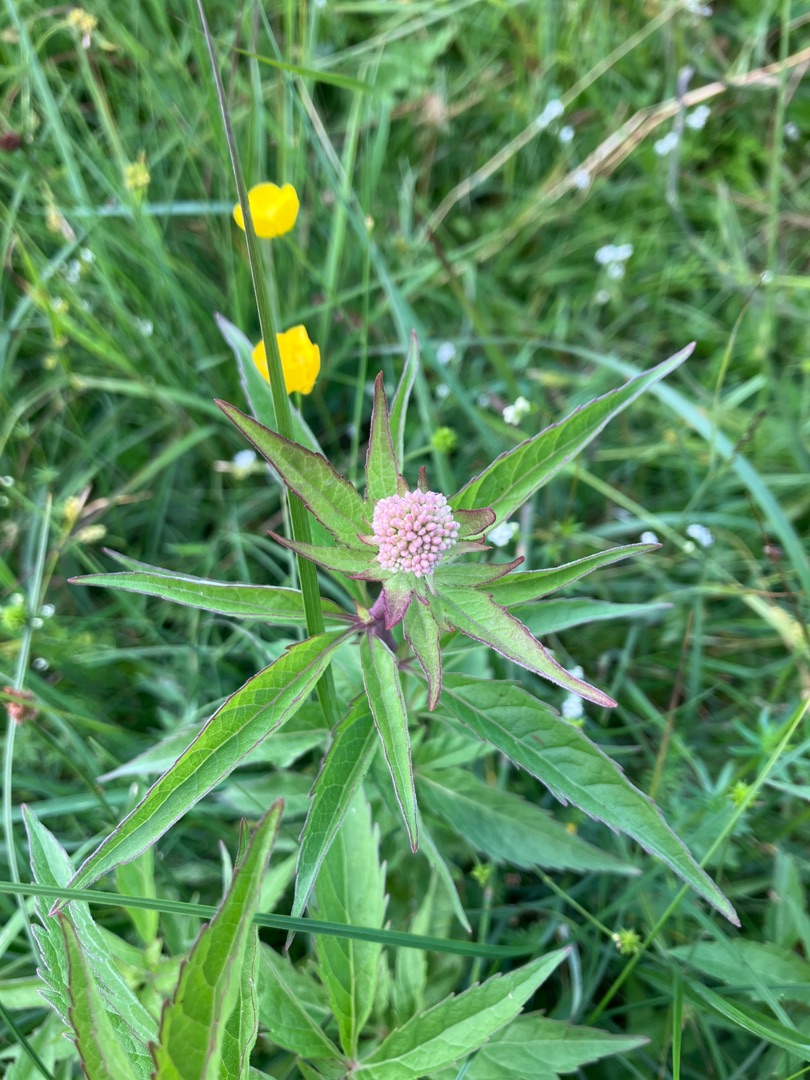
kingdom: Plantae
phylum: Tracheophyta
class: Magnoliopsida
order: Asterales
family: Asteraceae
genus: Eupatorium
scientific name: Eupatorium cannabinum
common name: Hjortetrøst
